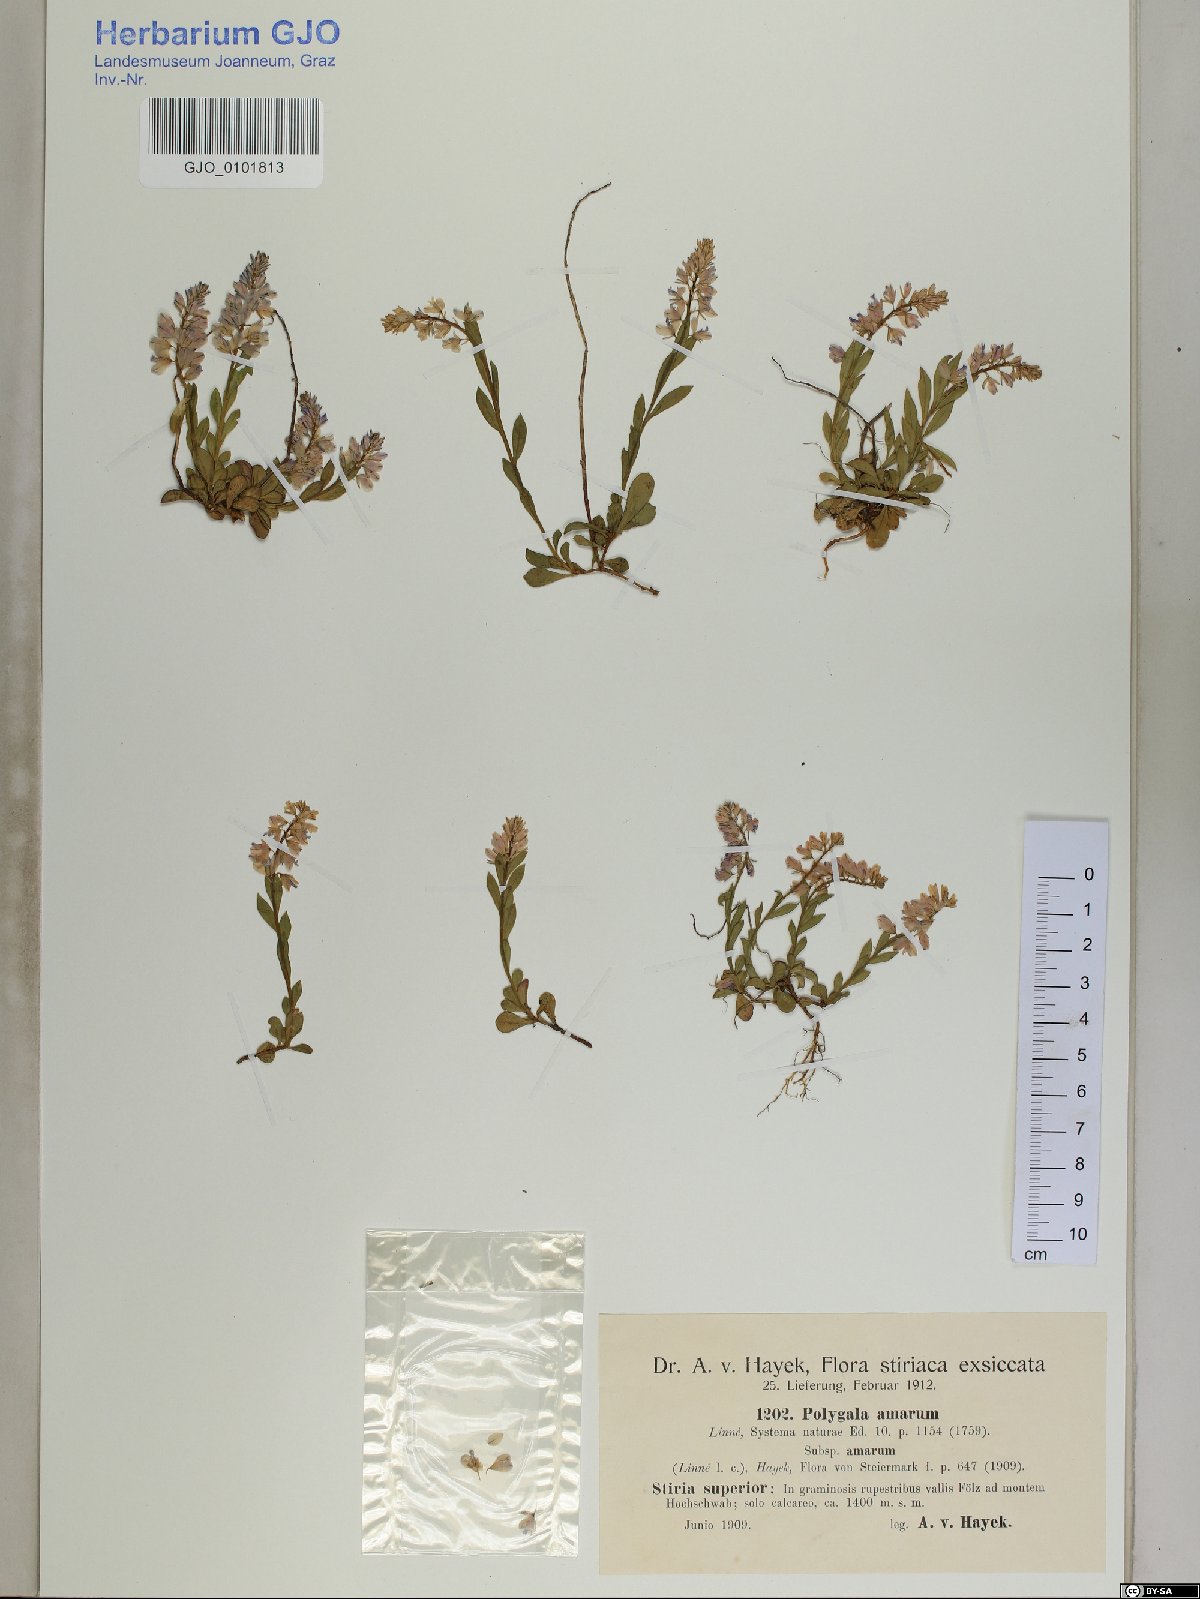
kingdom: Plantae
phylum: Tracheophyta
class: Magnoliopsida
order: Fabales
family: Polygalaceae
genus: Polygala
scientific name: Polygala amara
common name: Milkwort
